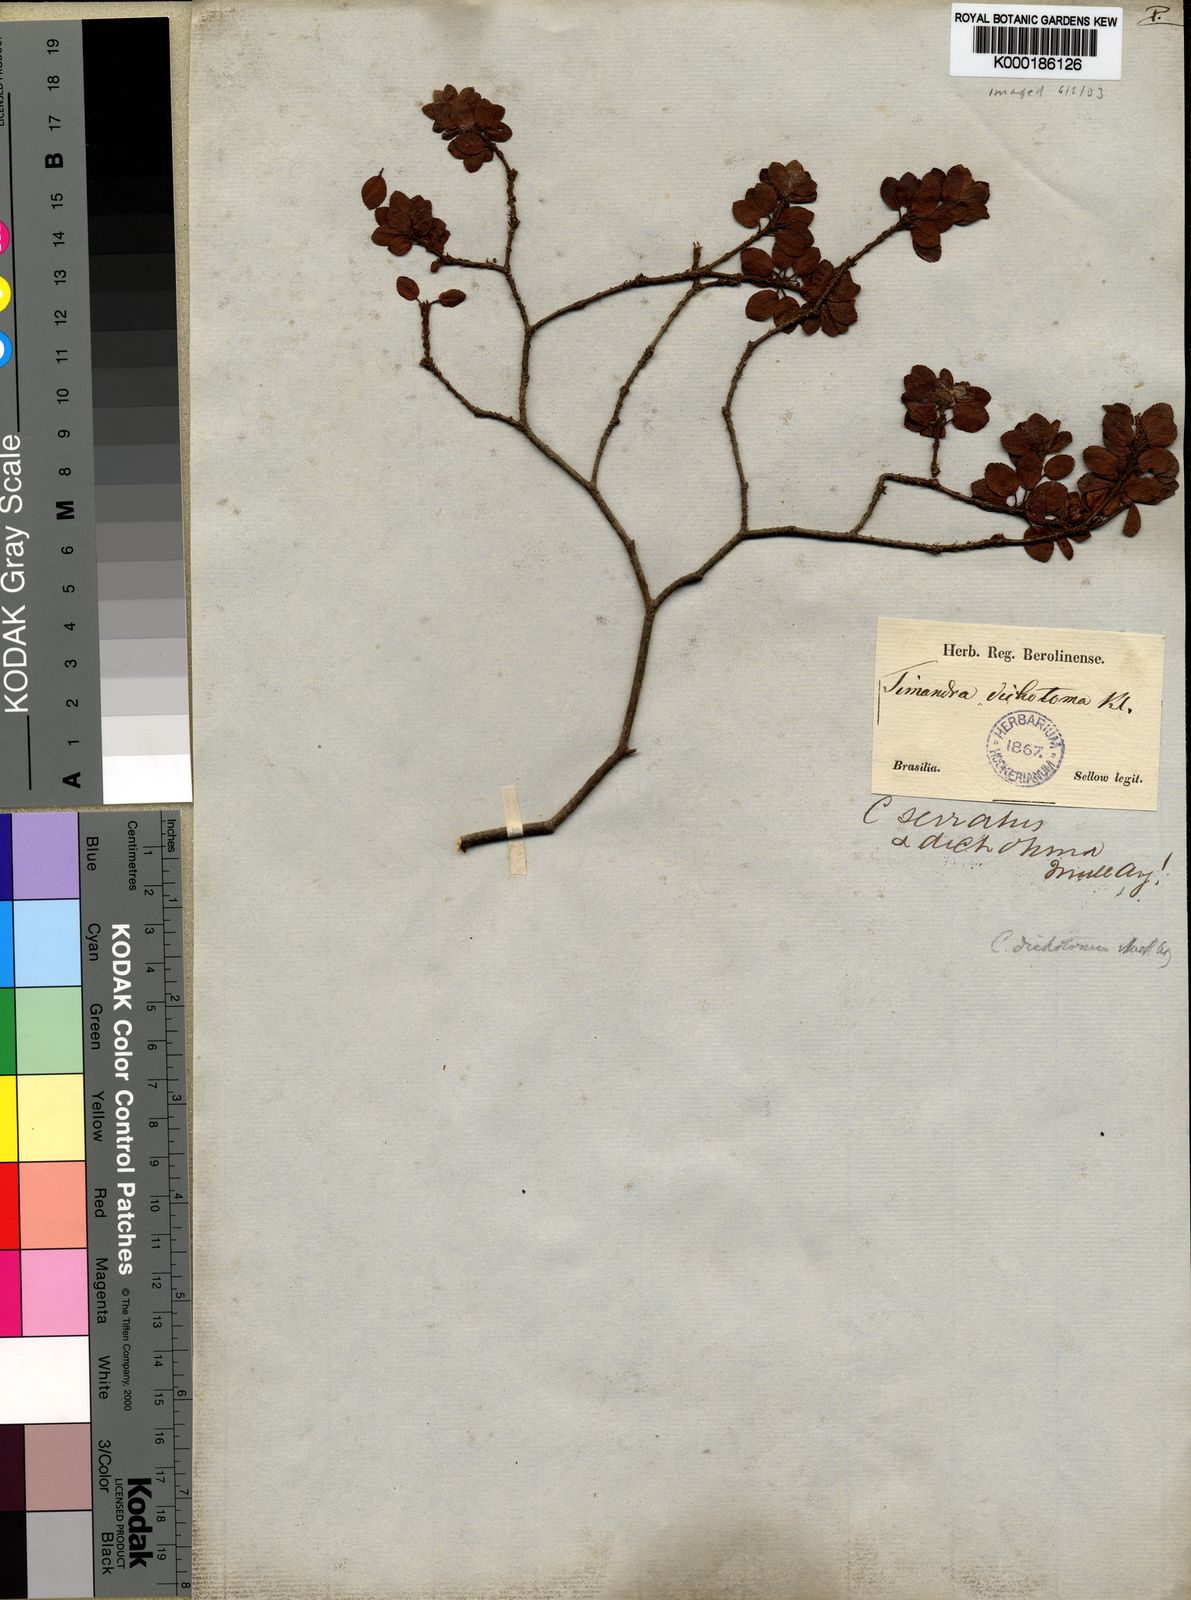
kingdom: Plantae
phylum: Tracheophyta
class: Magnoliopsida
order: Malpighiales
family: Euphorbiaceae
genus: Croton
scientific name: Croton serratus
